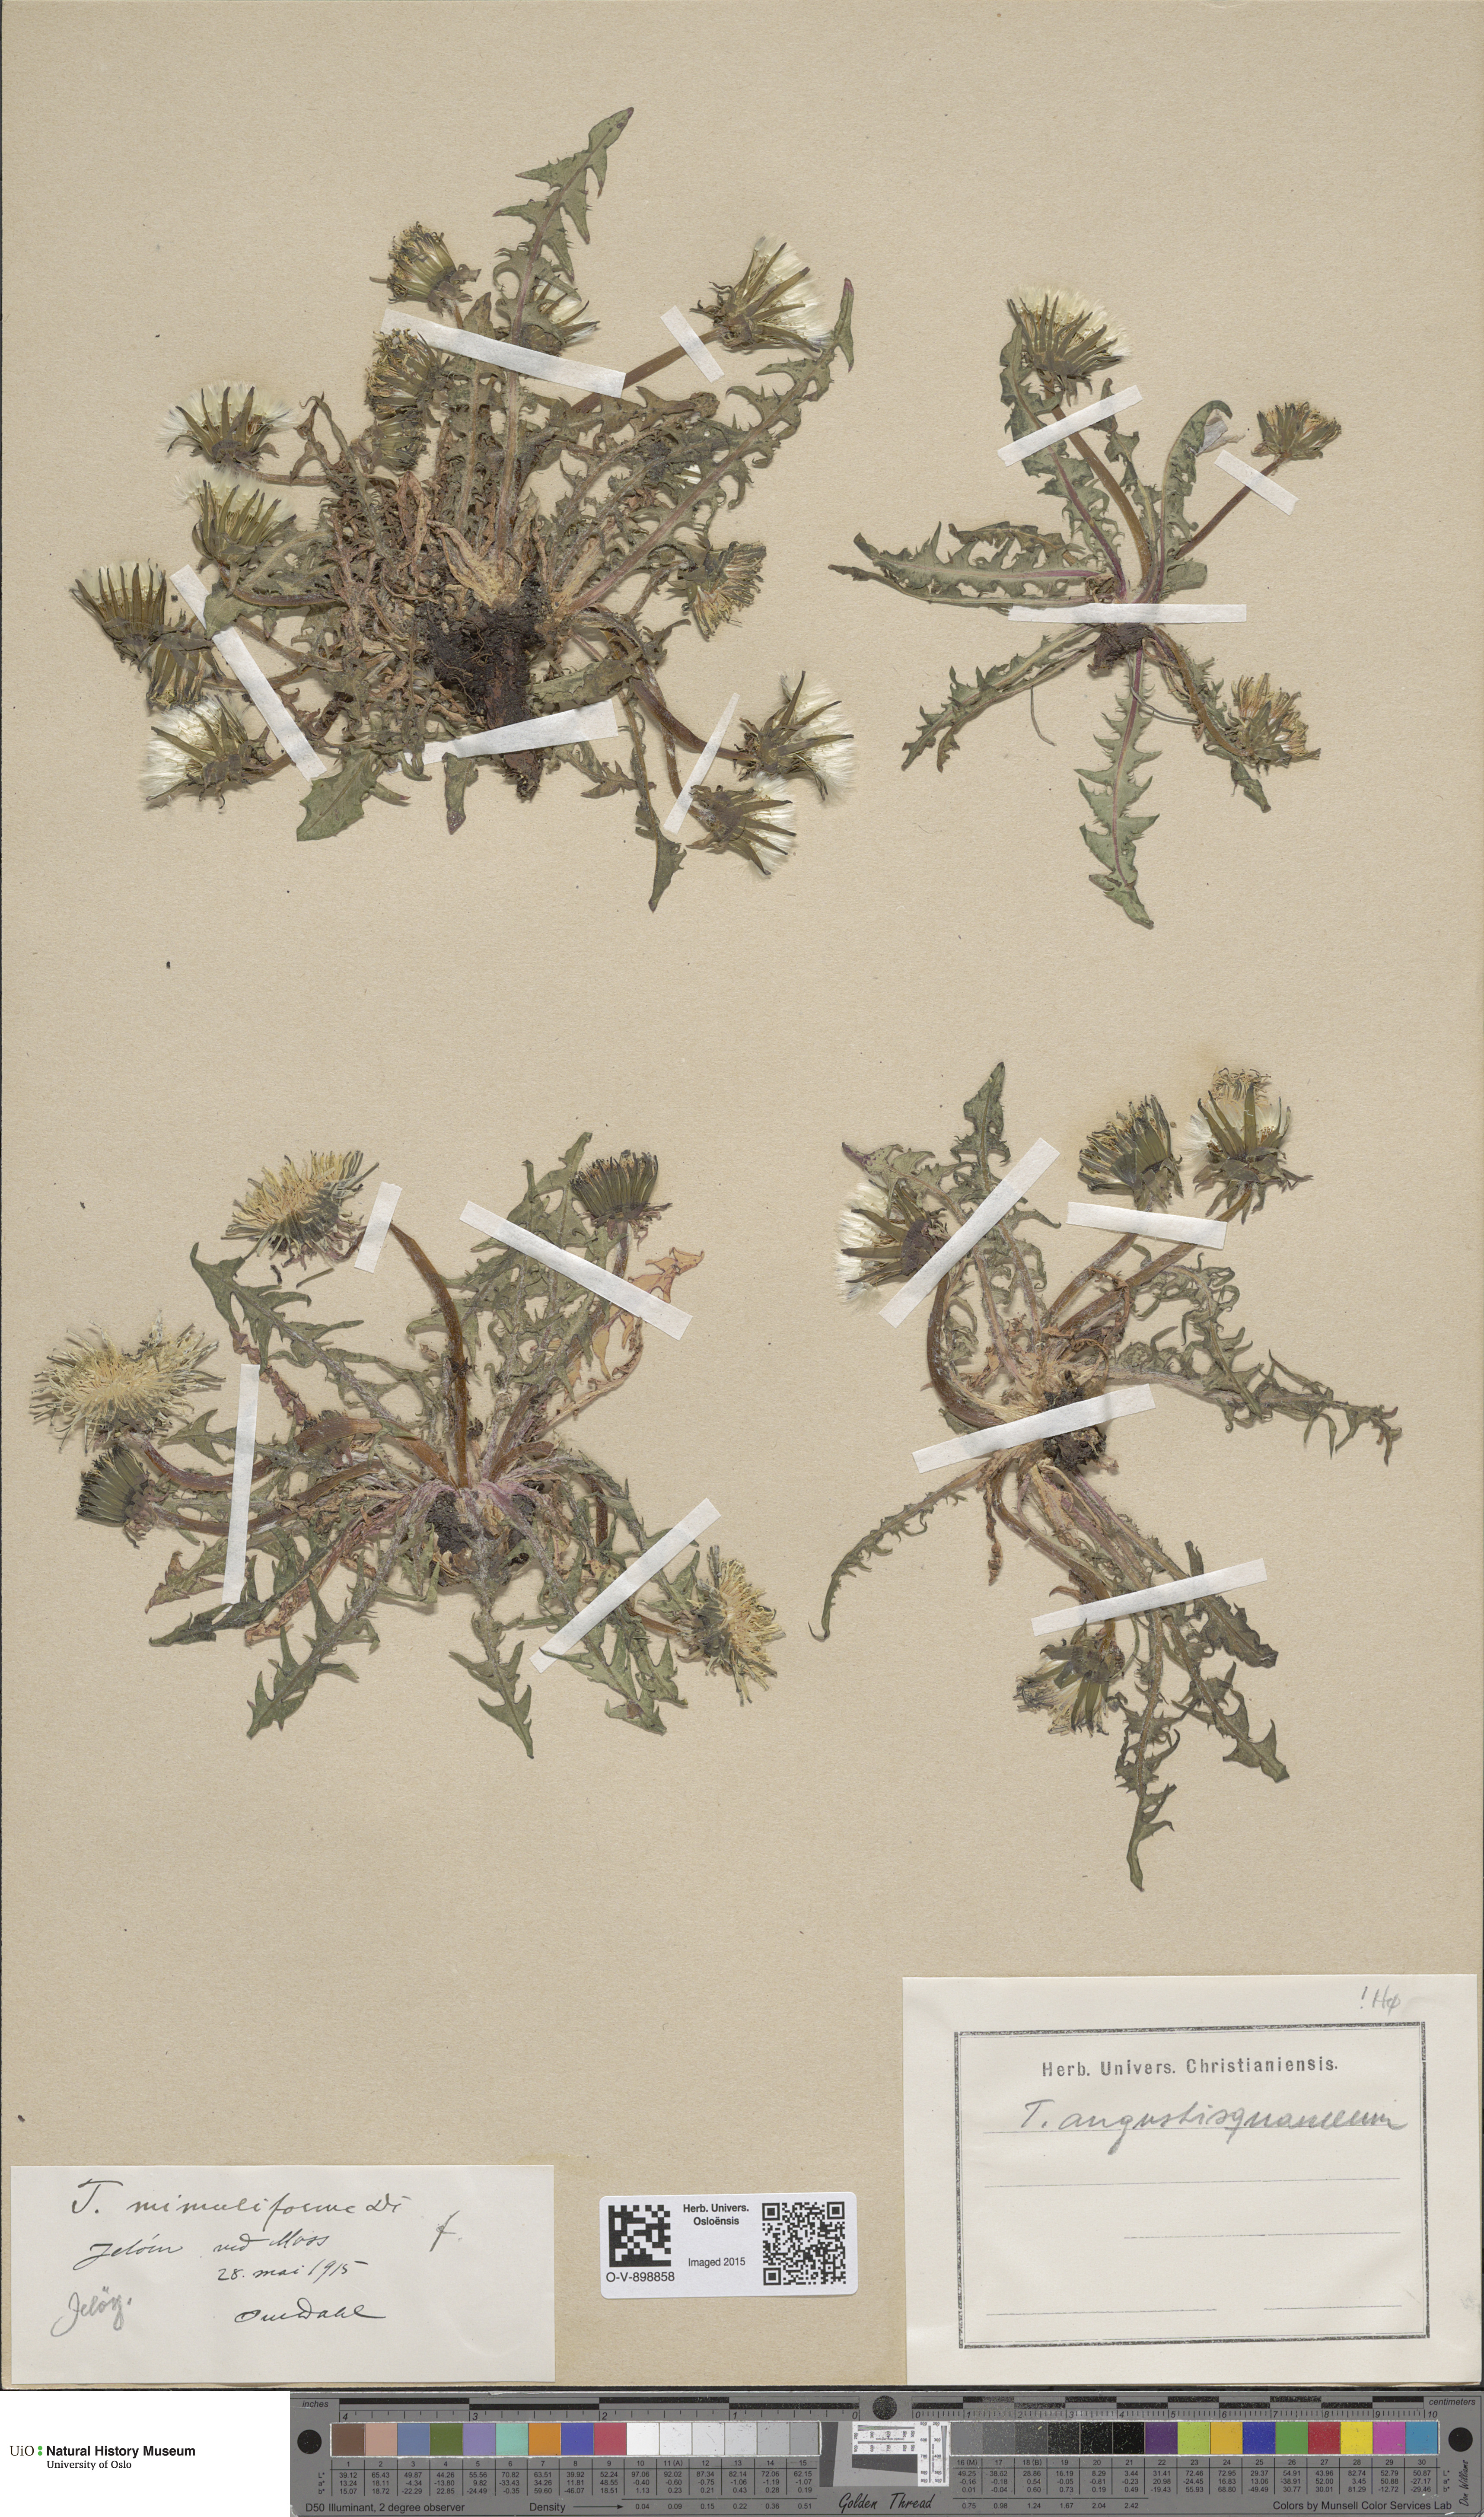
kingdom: Plantae
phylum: Tracheophyta
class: Magnoliopsida
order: Asterales
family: Asteraceae
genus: Taraxacum
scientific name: Taraxacum angustisquameum
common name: Multilobed dandelion
